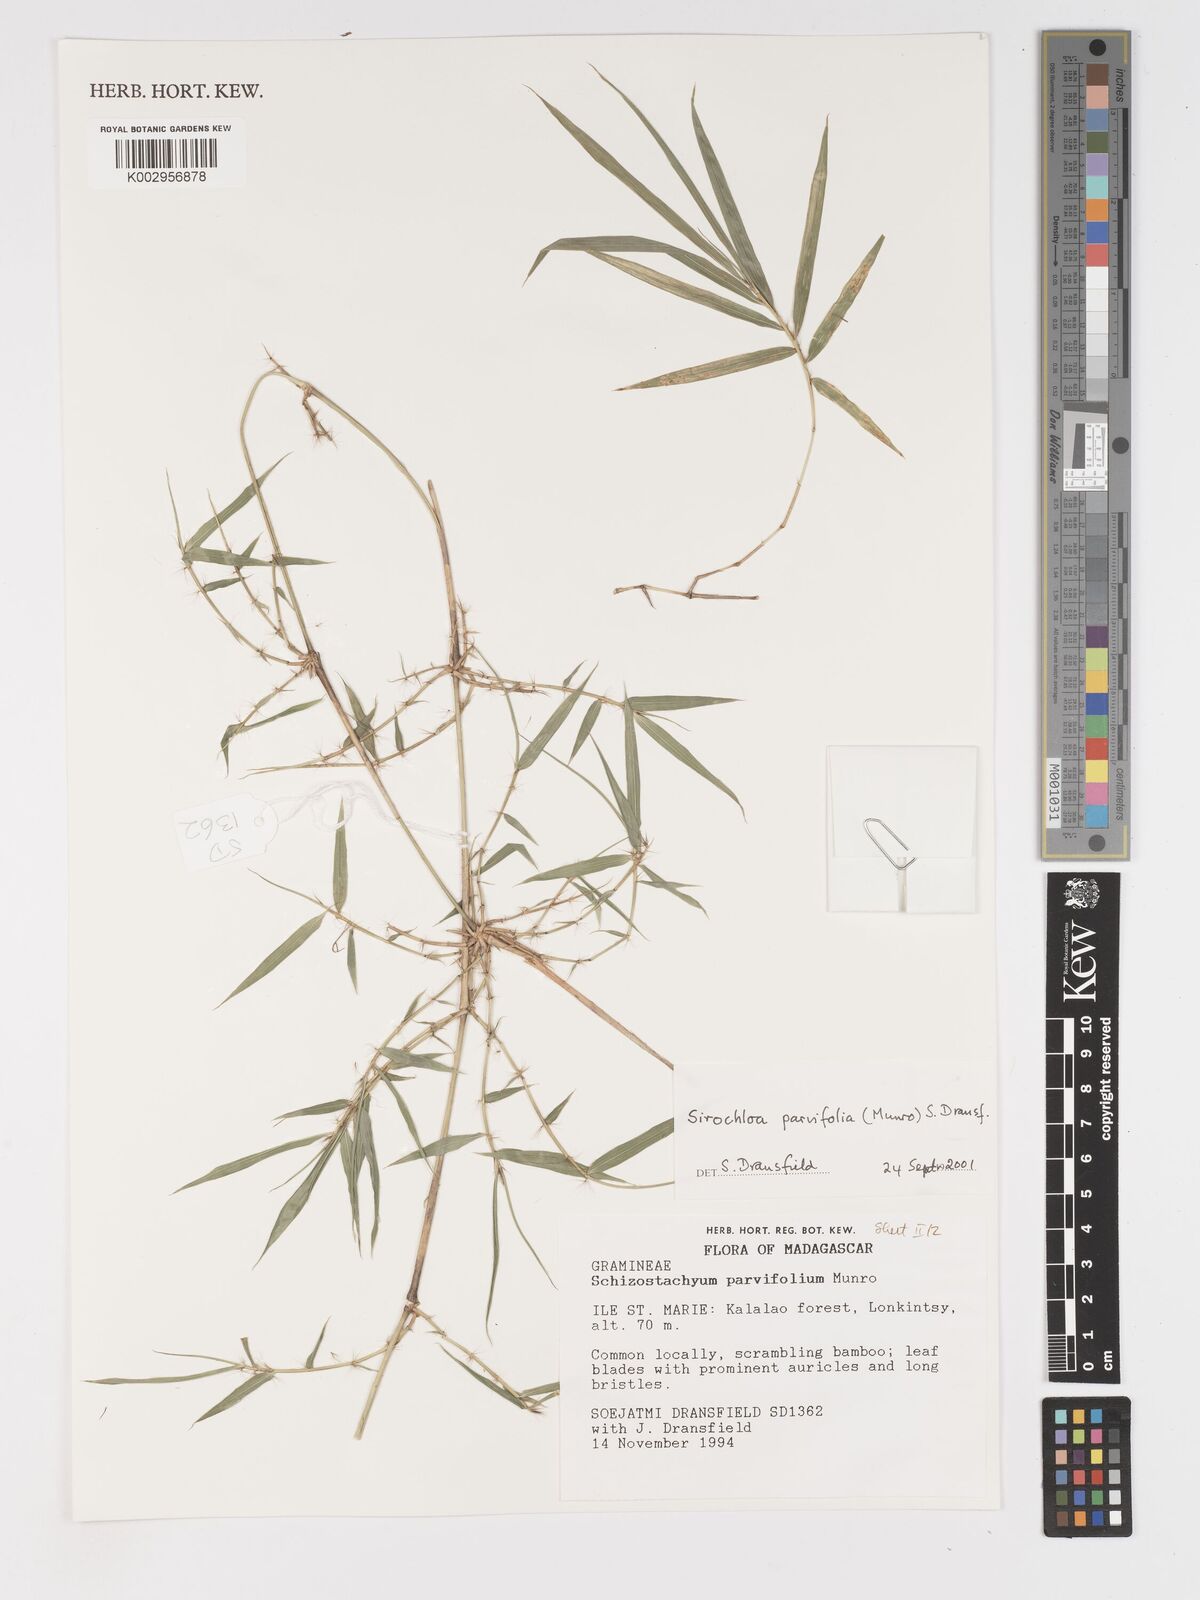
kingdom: Plantae
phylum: Tracheophyta
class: Liliopsida
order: Poales
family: Poaceae
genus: Sirochloa
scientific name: Sirochloa parvifolia
